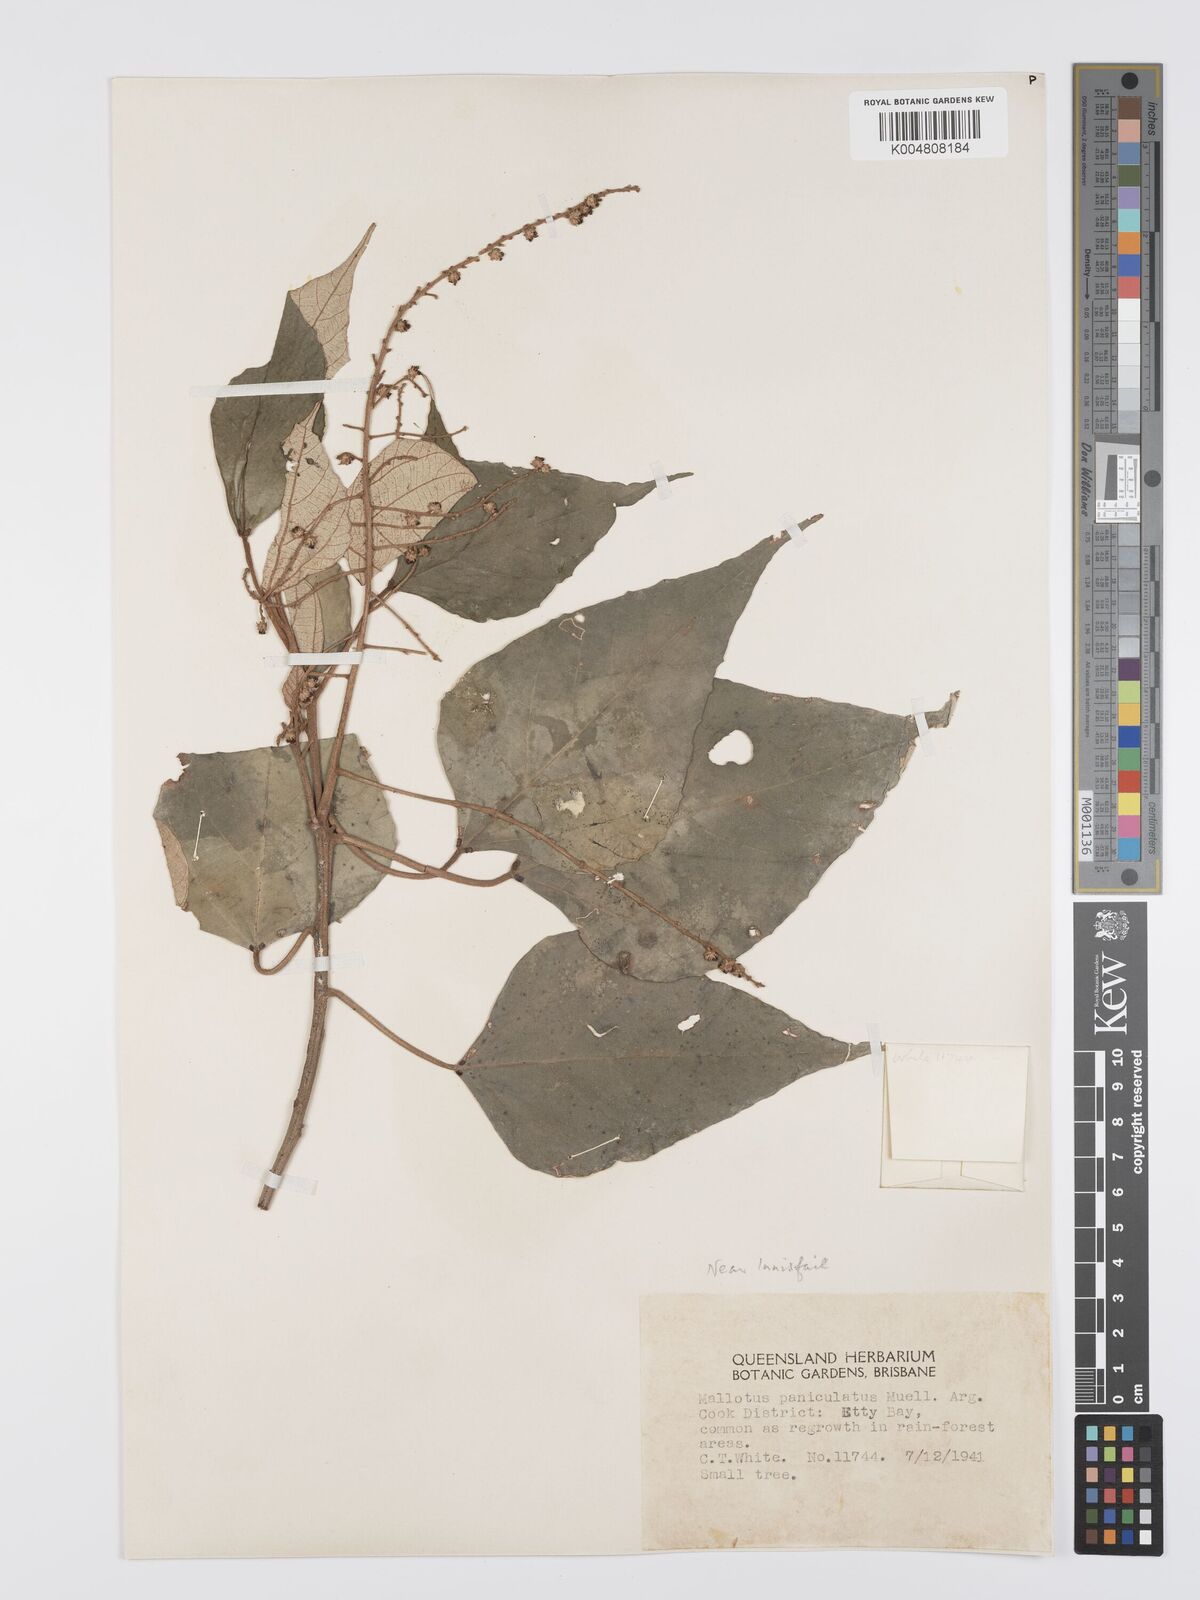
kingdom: Plantae
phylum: Tracheophyta
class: Magnoliopsida
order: Malpighiales
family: Euphorbiaceae
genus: Mallotus
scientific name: Mallotus paniculatus
